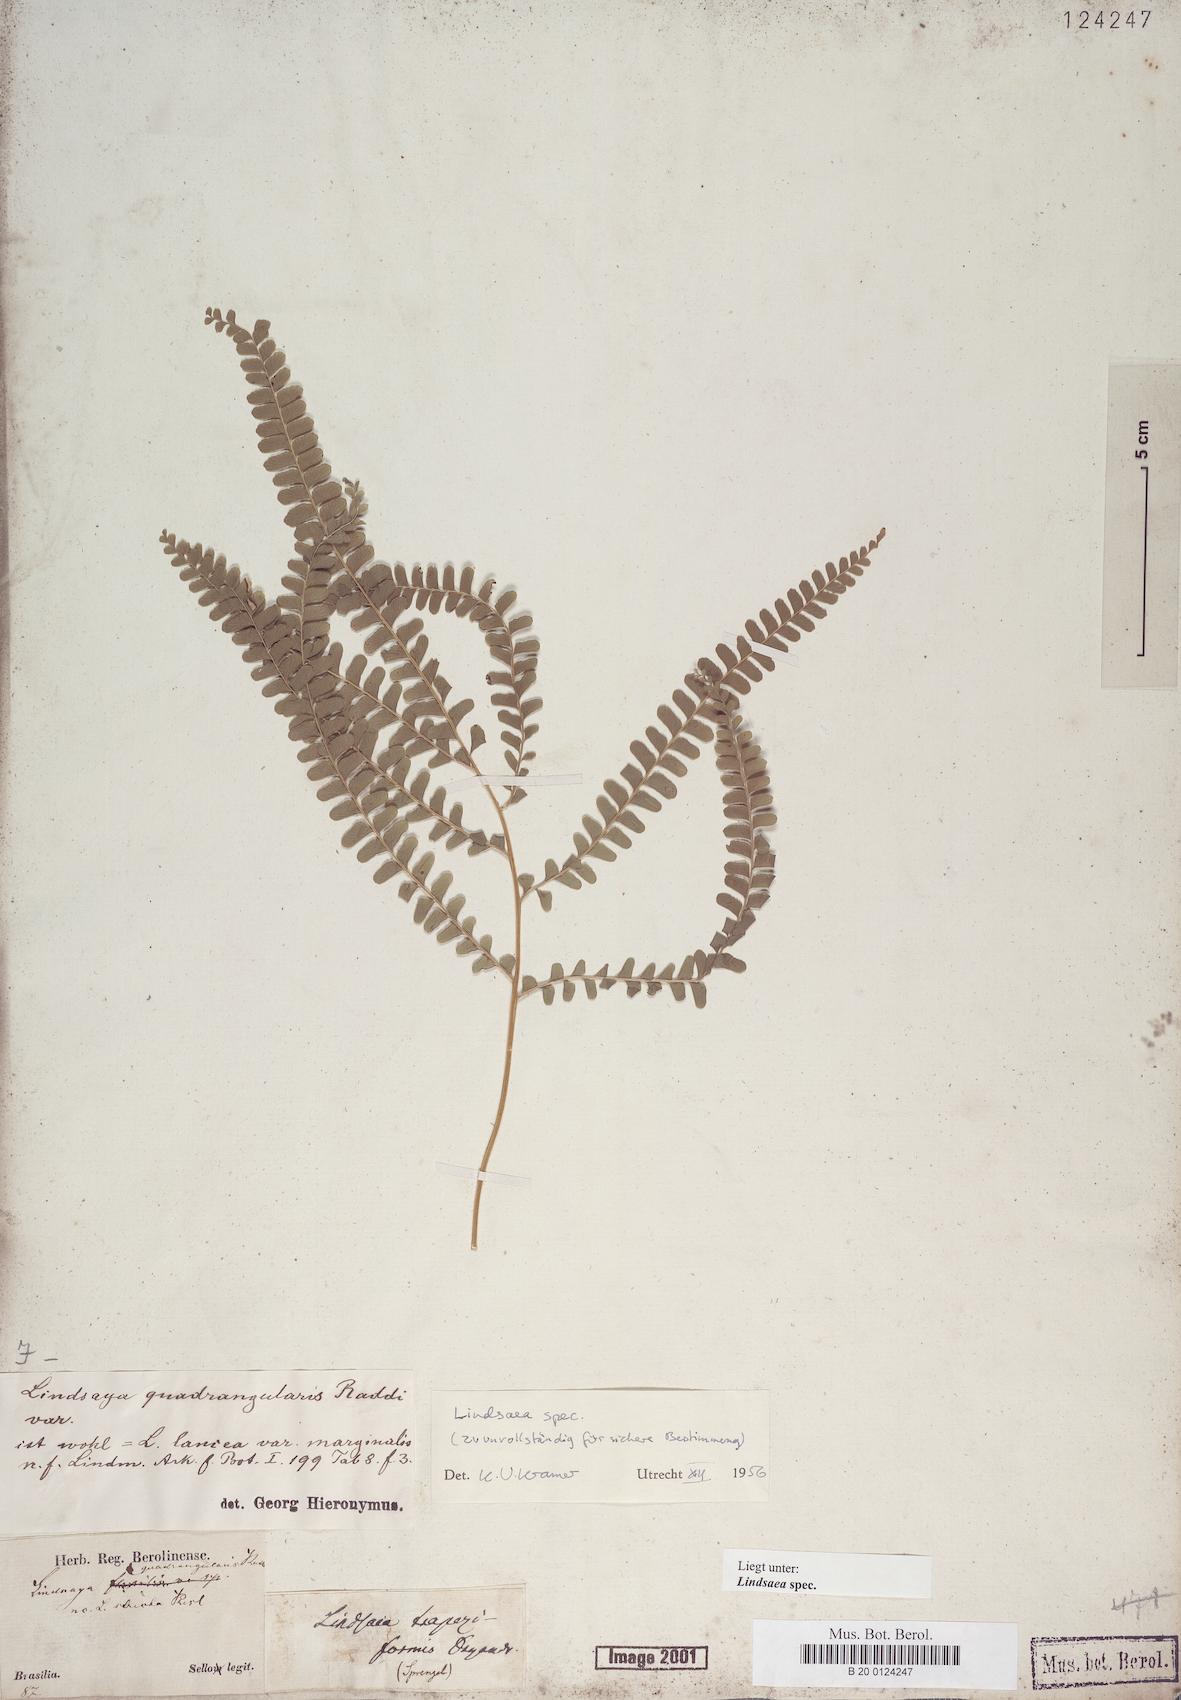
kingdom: Plantae
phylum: Tracheophyta
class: Polypodiopsida
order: Polypodiales
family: Lindsaeaceae
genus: Lindsaea
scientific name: Lindsaea
